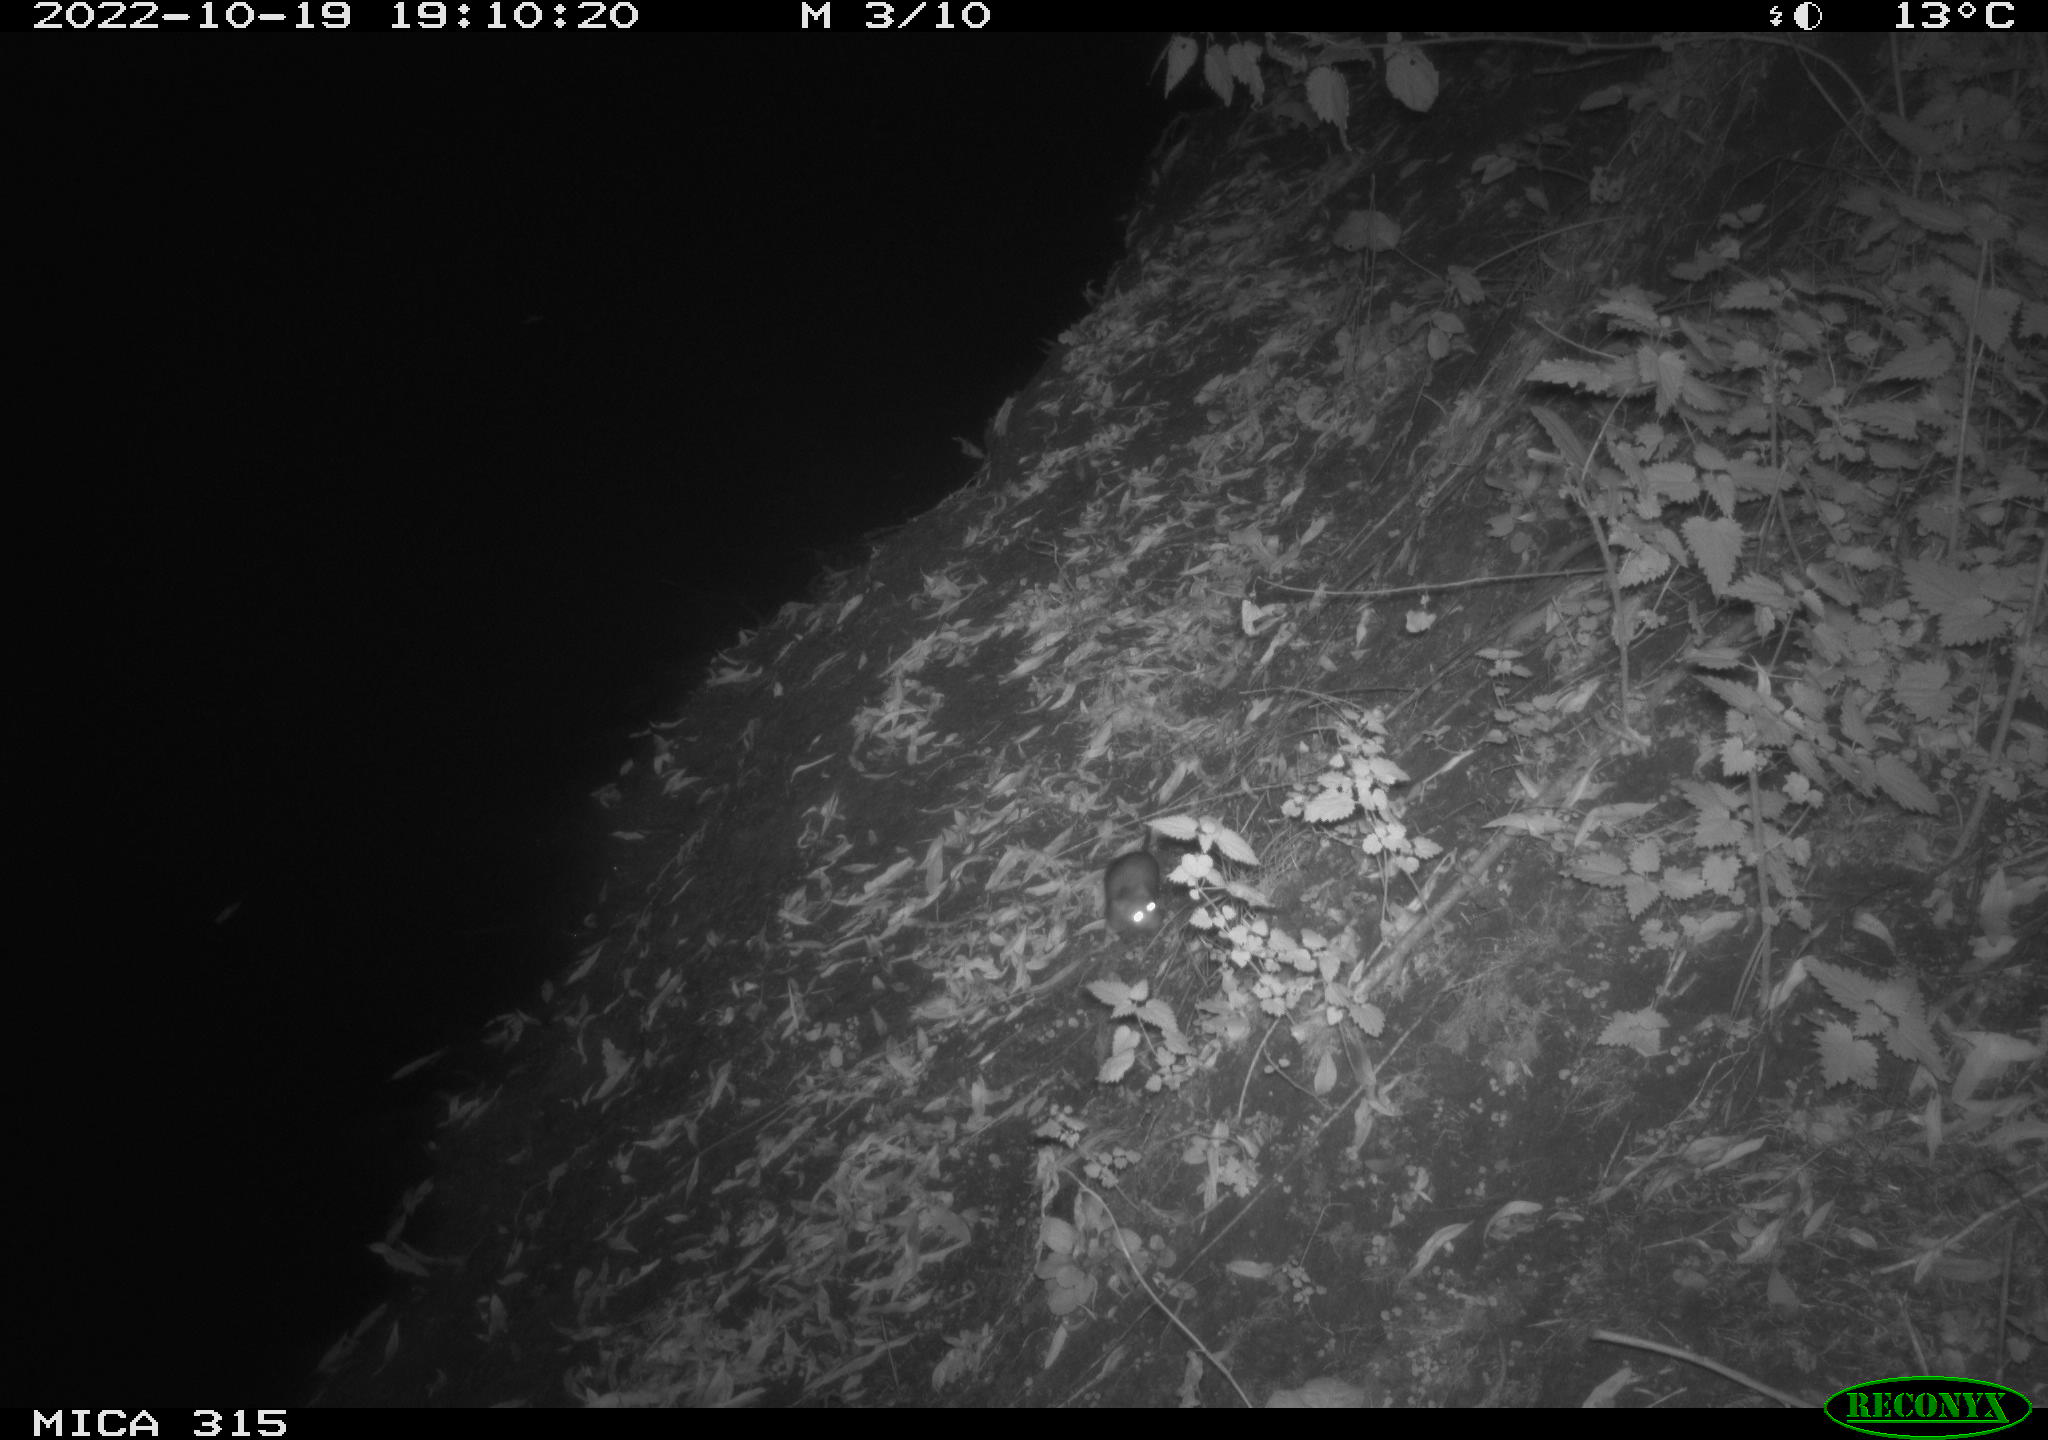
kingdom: Animalia
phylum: Chordata
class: Mammalia
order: Rodentia
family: Muridae
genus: Rattus
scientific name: Rattus norvegicus
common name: Brown rat
